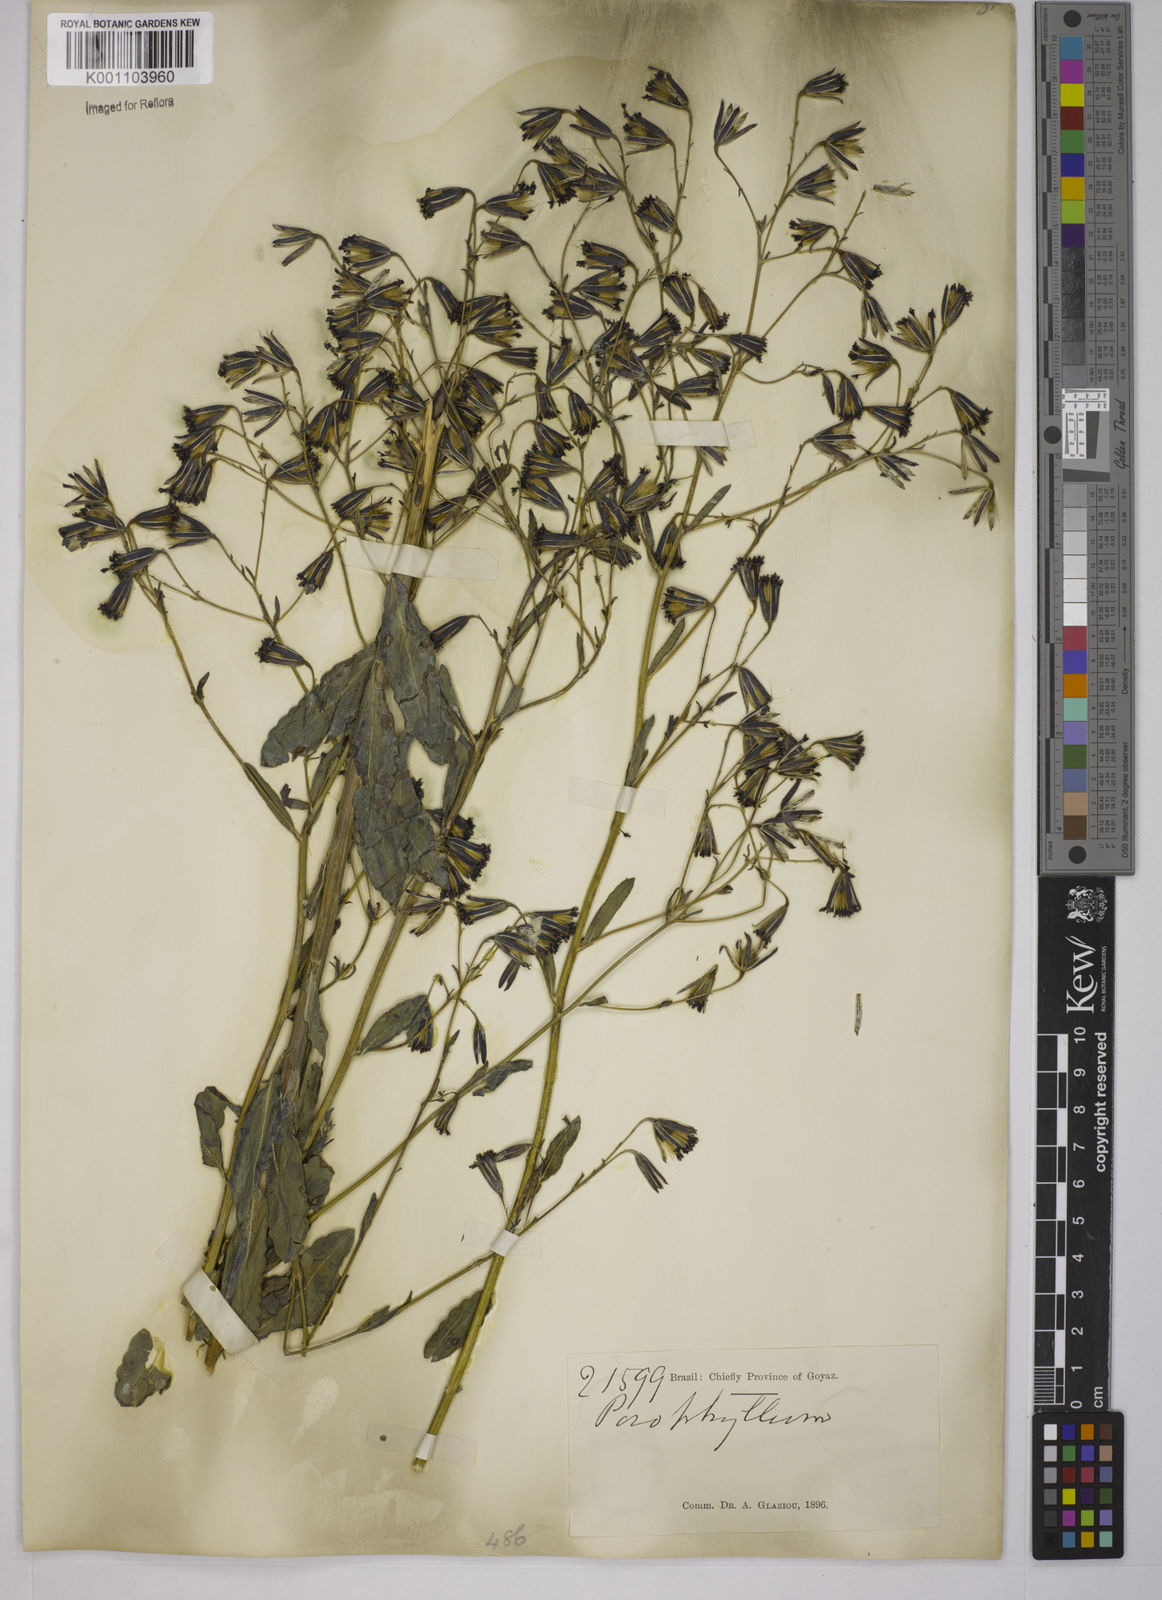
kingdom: Plantae
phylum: Tracheophyta
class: Magnoliopsida
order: Asterales
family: Asteraceae
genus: Porophyllum
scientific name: Porophyllum
